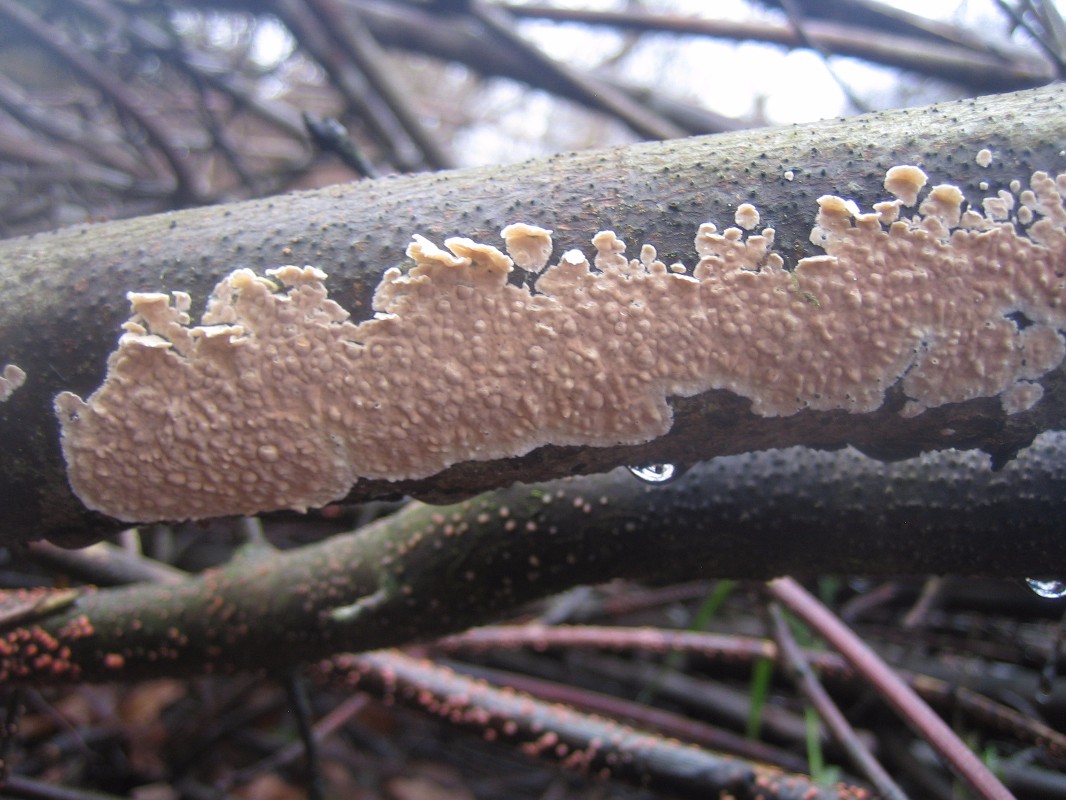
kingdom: Fungi
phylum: Basidiomycota
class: Agaricomycetes
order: Agaricales
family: Physalacriaceae
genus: Cylindrobasidium
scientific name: Cylindrobasidium evolvens
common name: sprækkehinde
